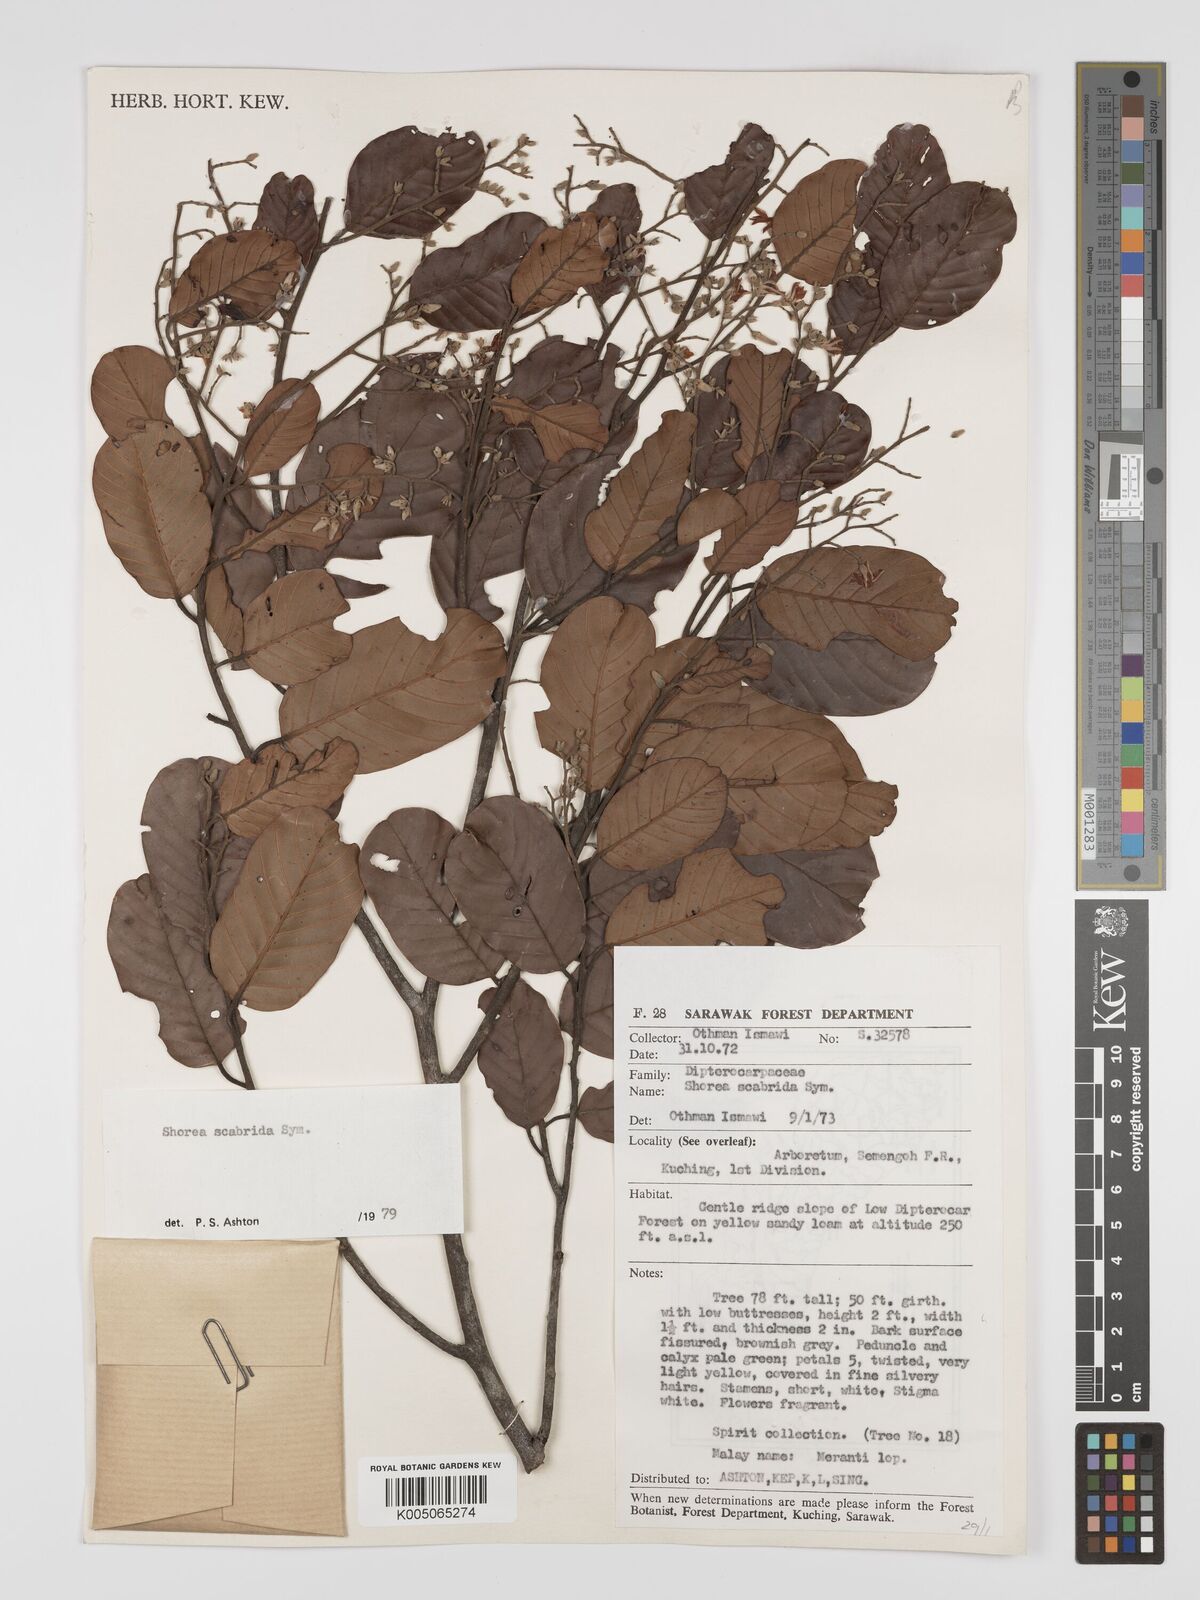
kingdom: Plantae
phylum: Tracheophyta
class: Magnoliopsida
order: Malvales
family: Dipterocarpaceae
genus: Shorea
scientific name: Shorea scabrida
